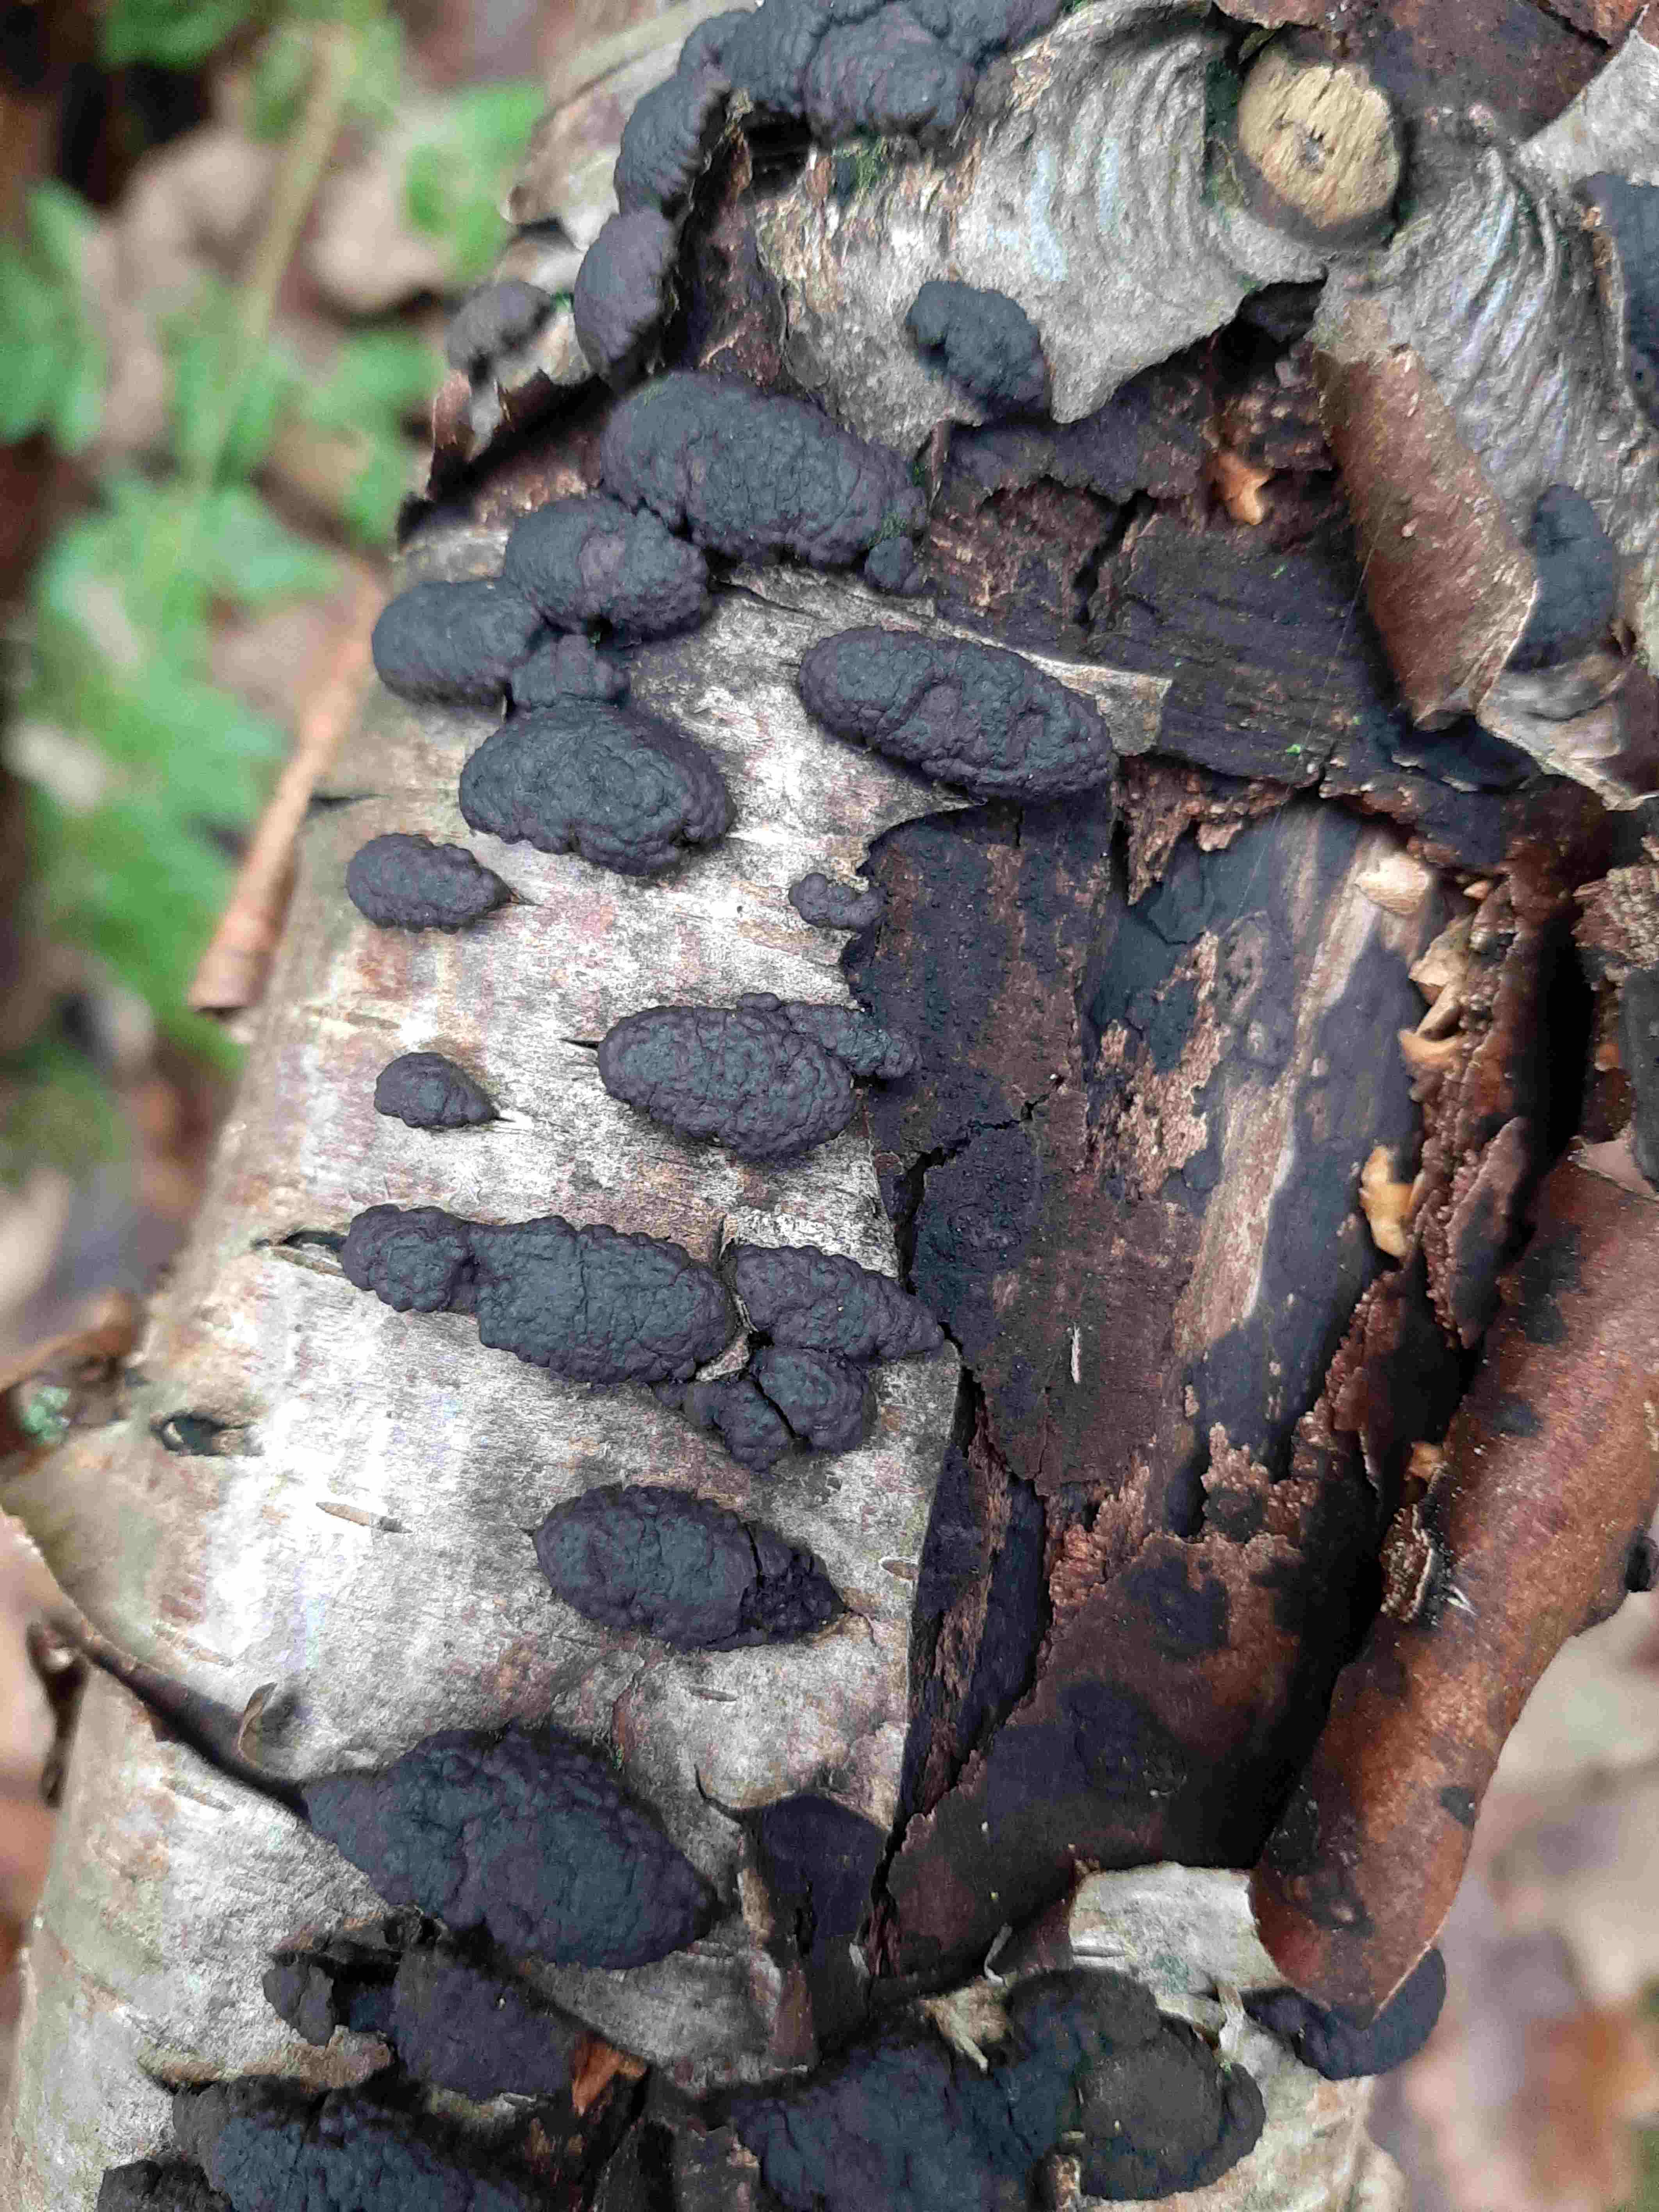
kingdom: Fungi
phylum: Ascomycota
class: Sordariomycetes
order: Xylariales
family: Hypoxylaceae
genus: Jackrogersella
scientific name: Jackrogersella multiformis
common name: foranderlig kulbær
